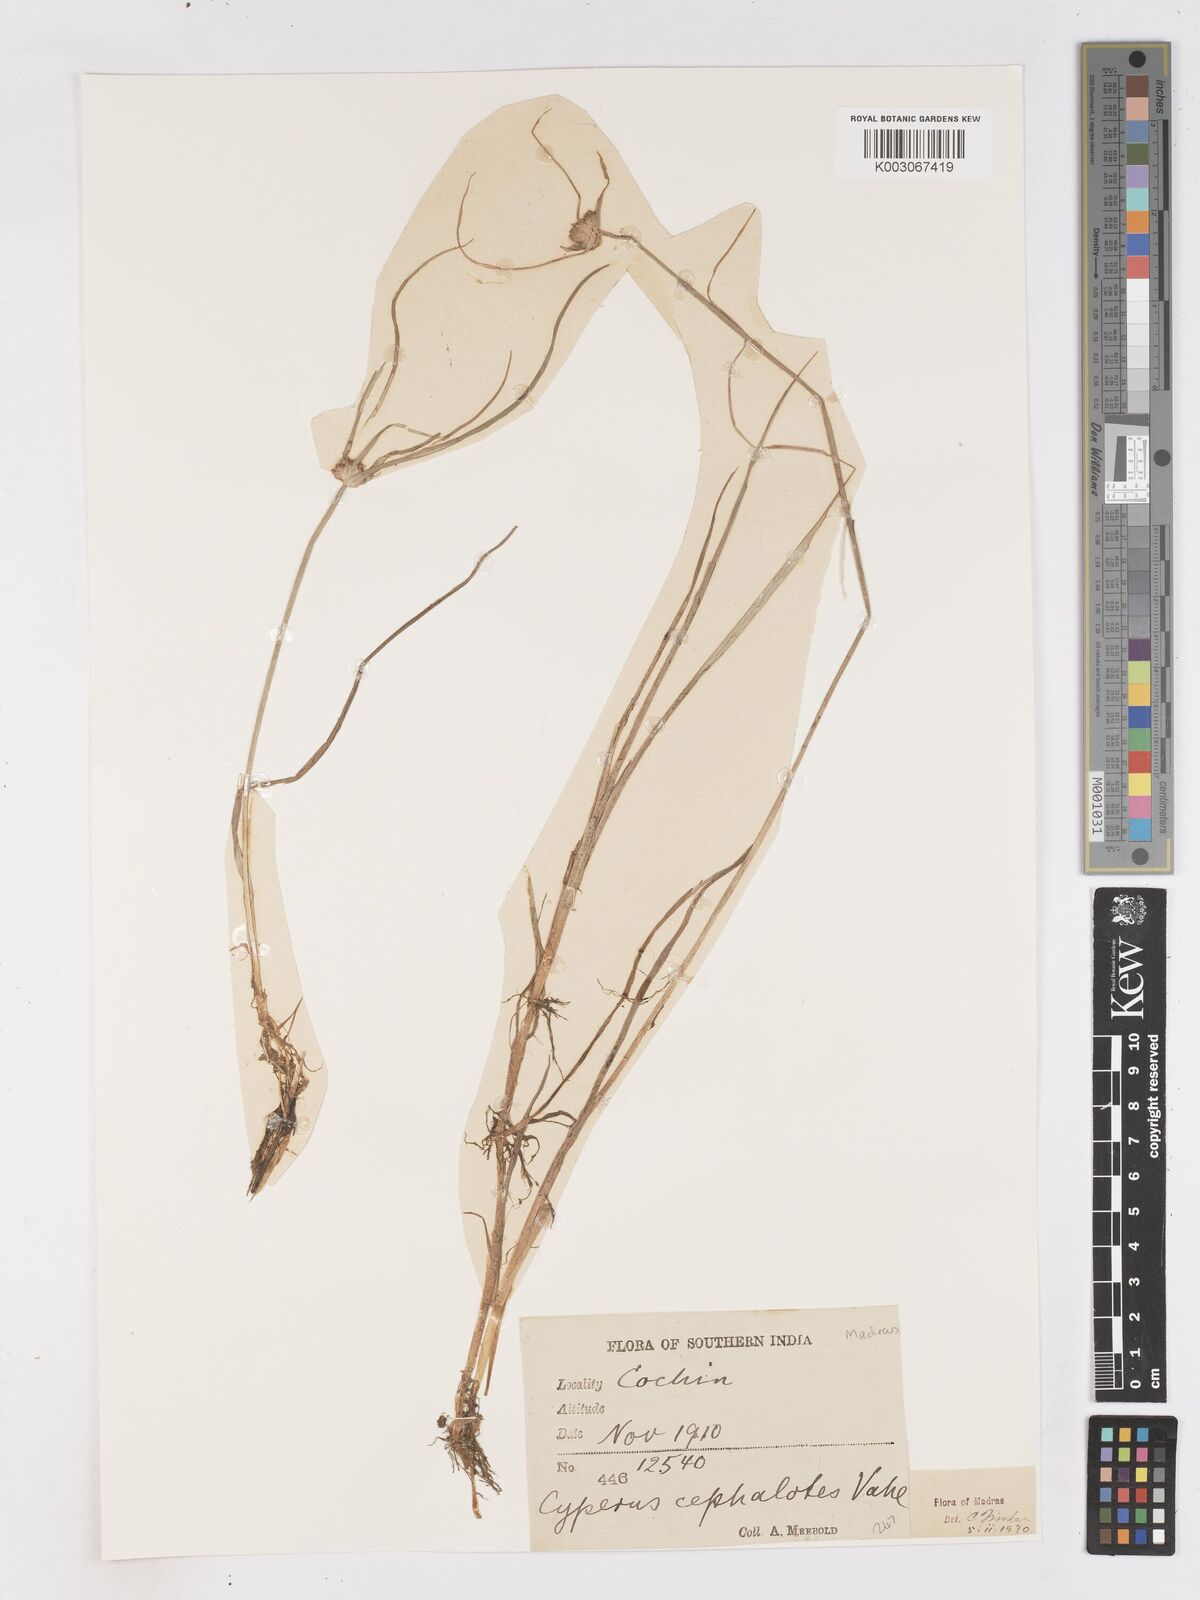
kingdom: Plantae
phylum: Tracheophyta
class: Liliopsida
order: Poales
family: Cyperaceae
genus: Cyperus
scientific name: Cyperus cephalotes
